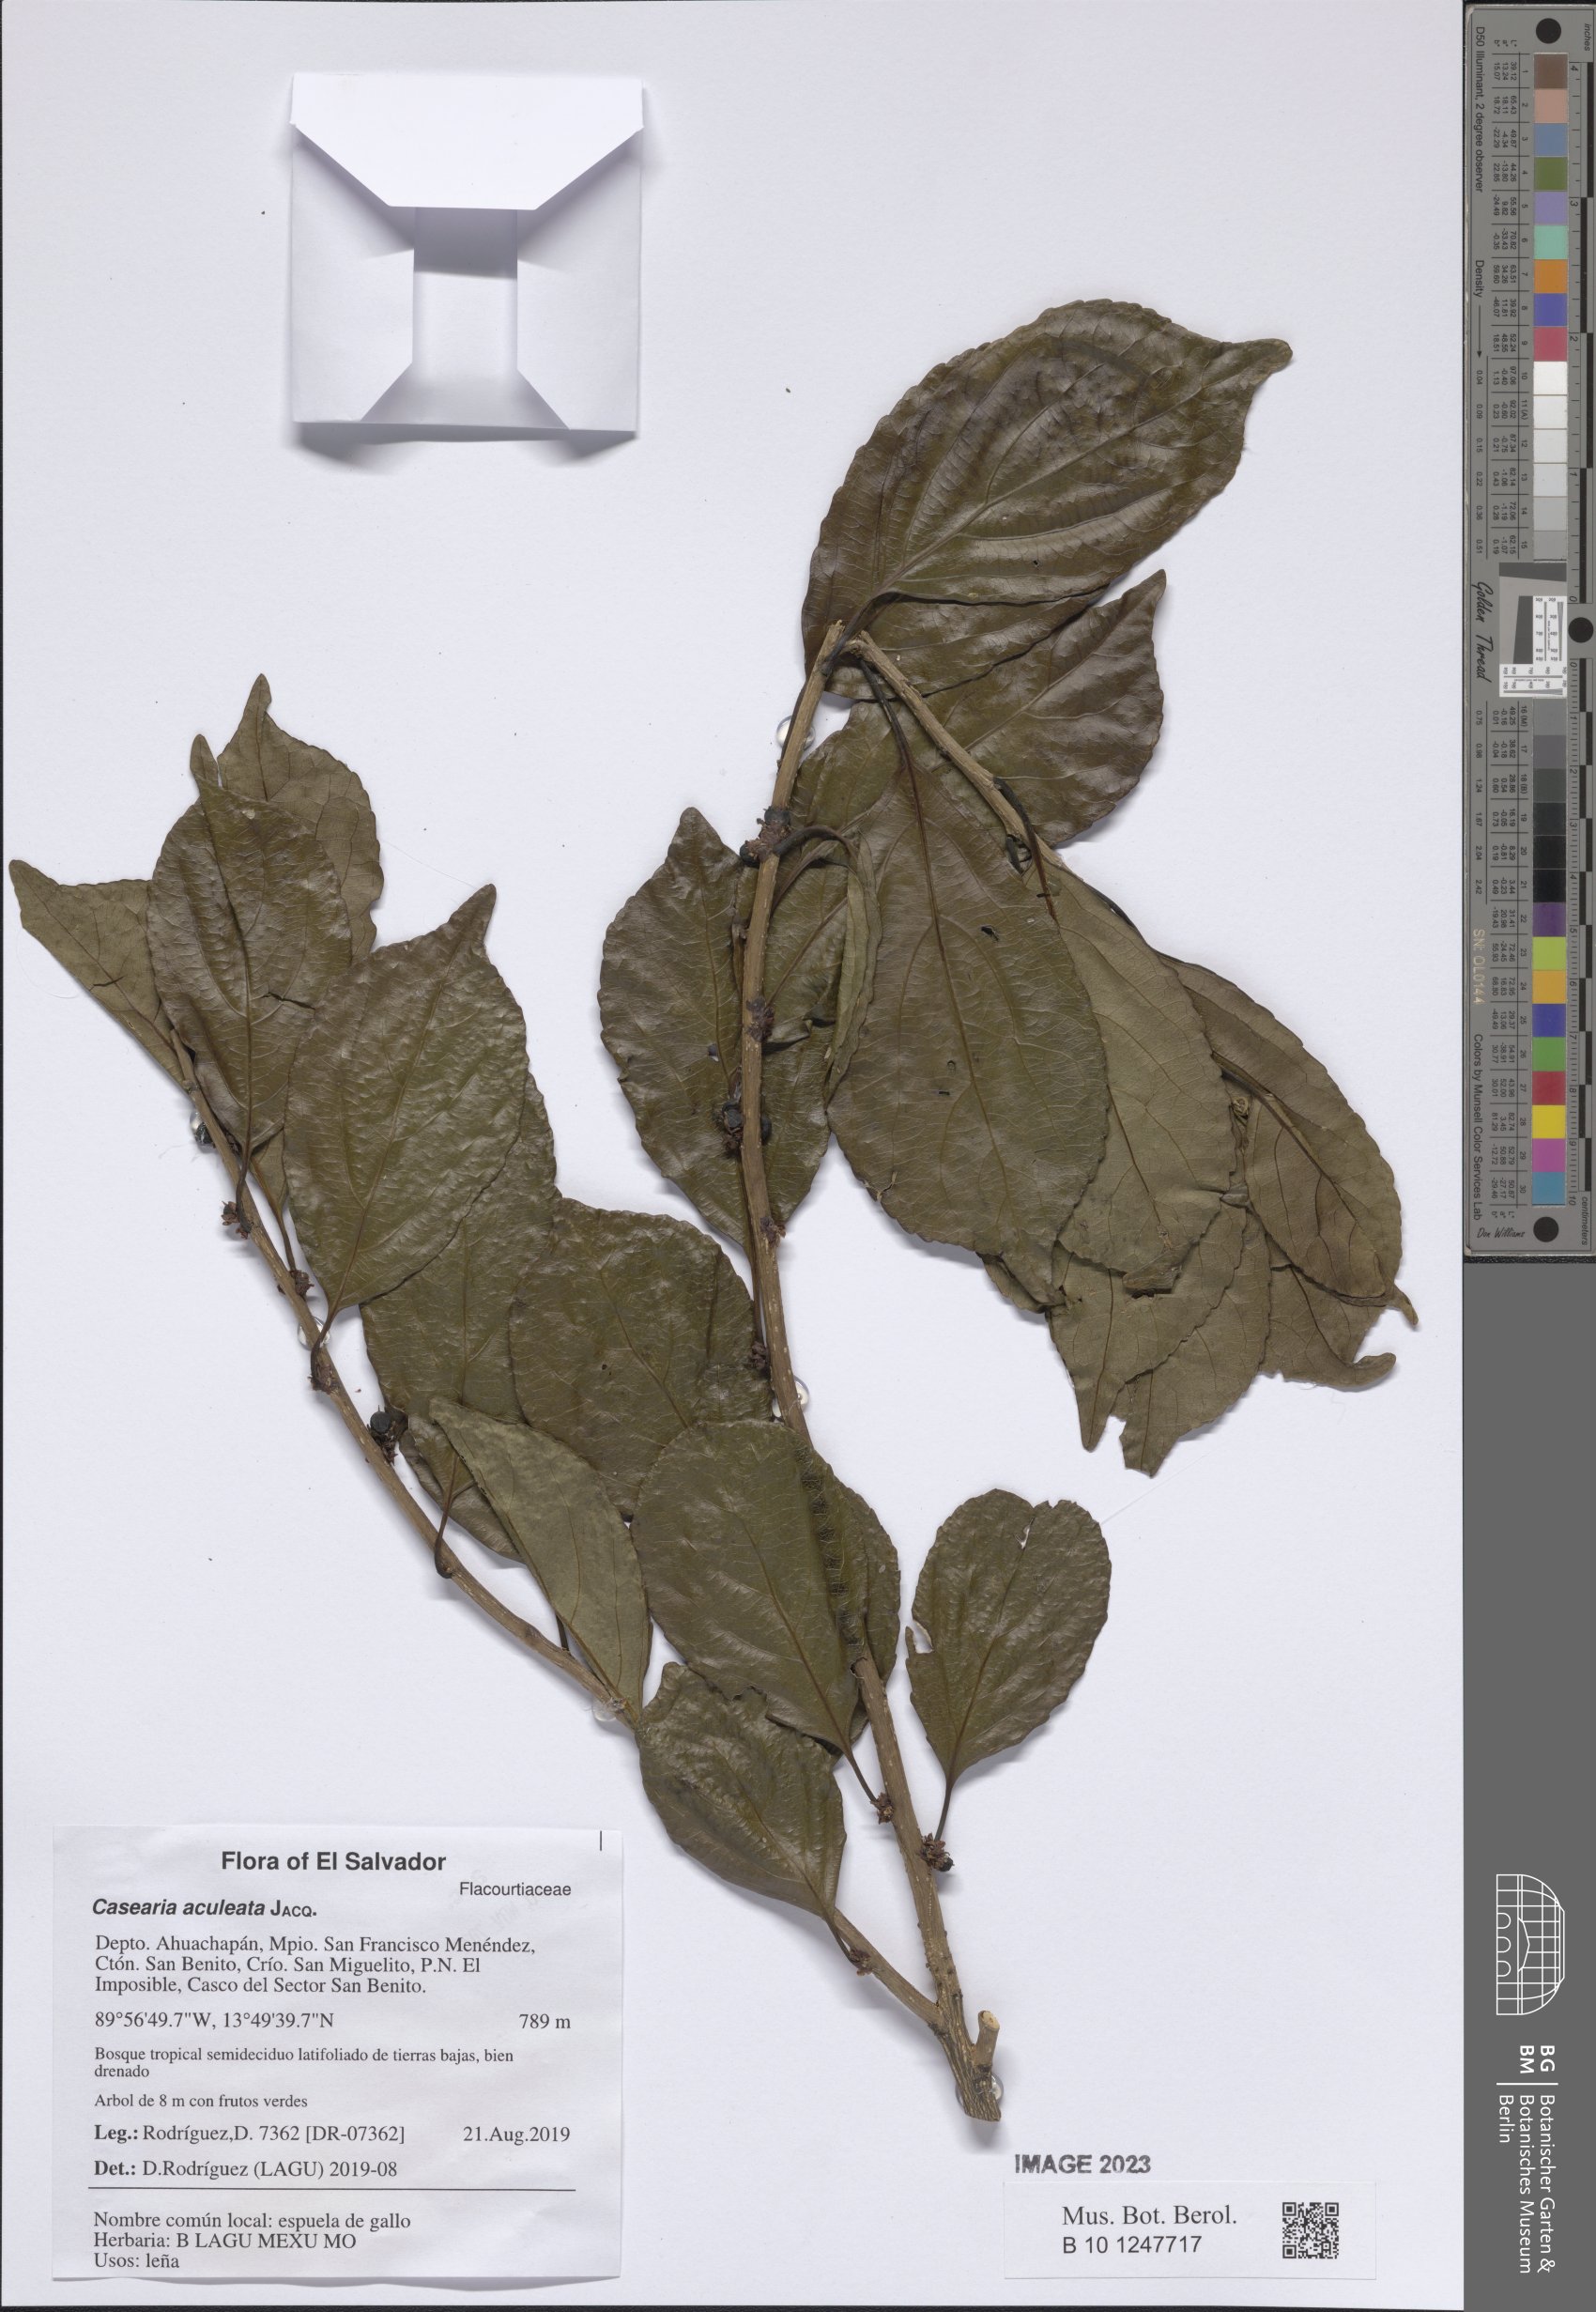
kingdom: Plantae
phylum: Tracheophyta
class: Magnoliopsida
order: Malpighiales
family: Salicaceae
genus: Casearia
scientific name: Casearia aculeata
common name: Cockspur
